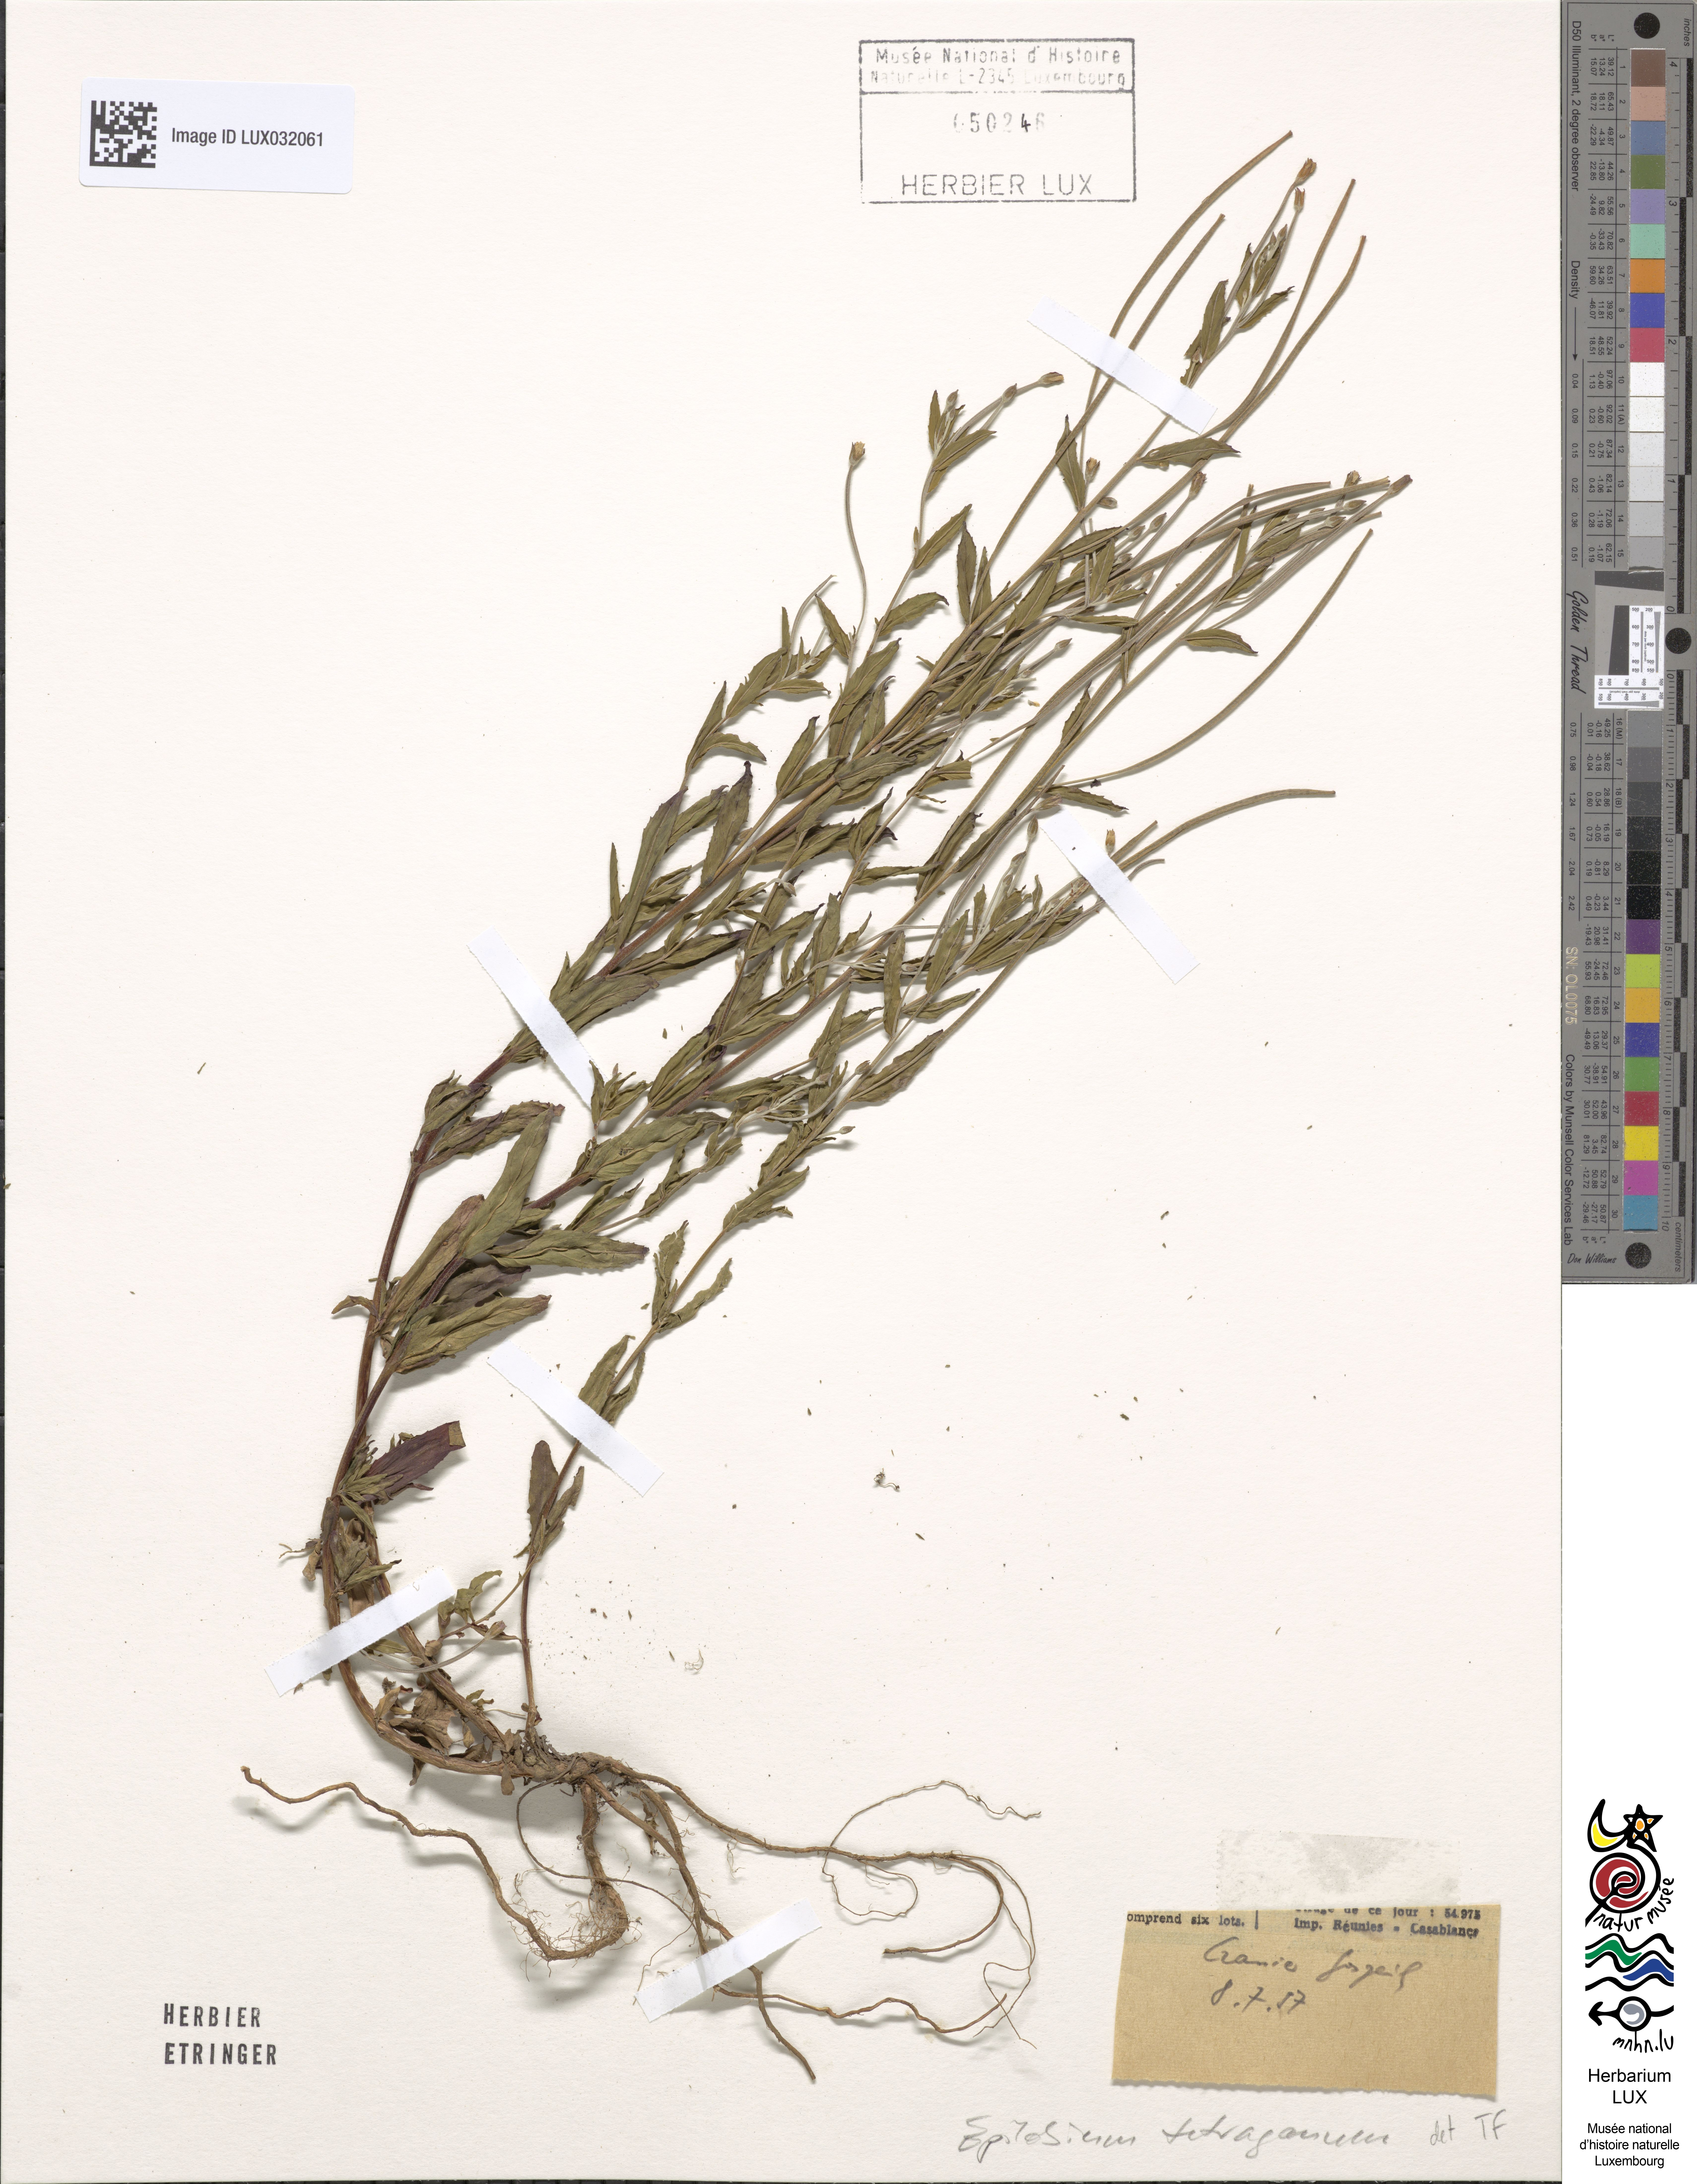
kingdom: Plantae
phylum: Tracheophyta
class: Magnoliopsida
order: Myrtales
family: Onagraceae
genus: Epilobium
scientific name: Epilobium tetragonum
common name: Square-stemmed willowherb
